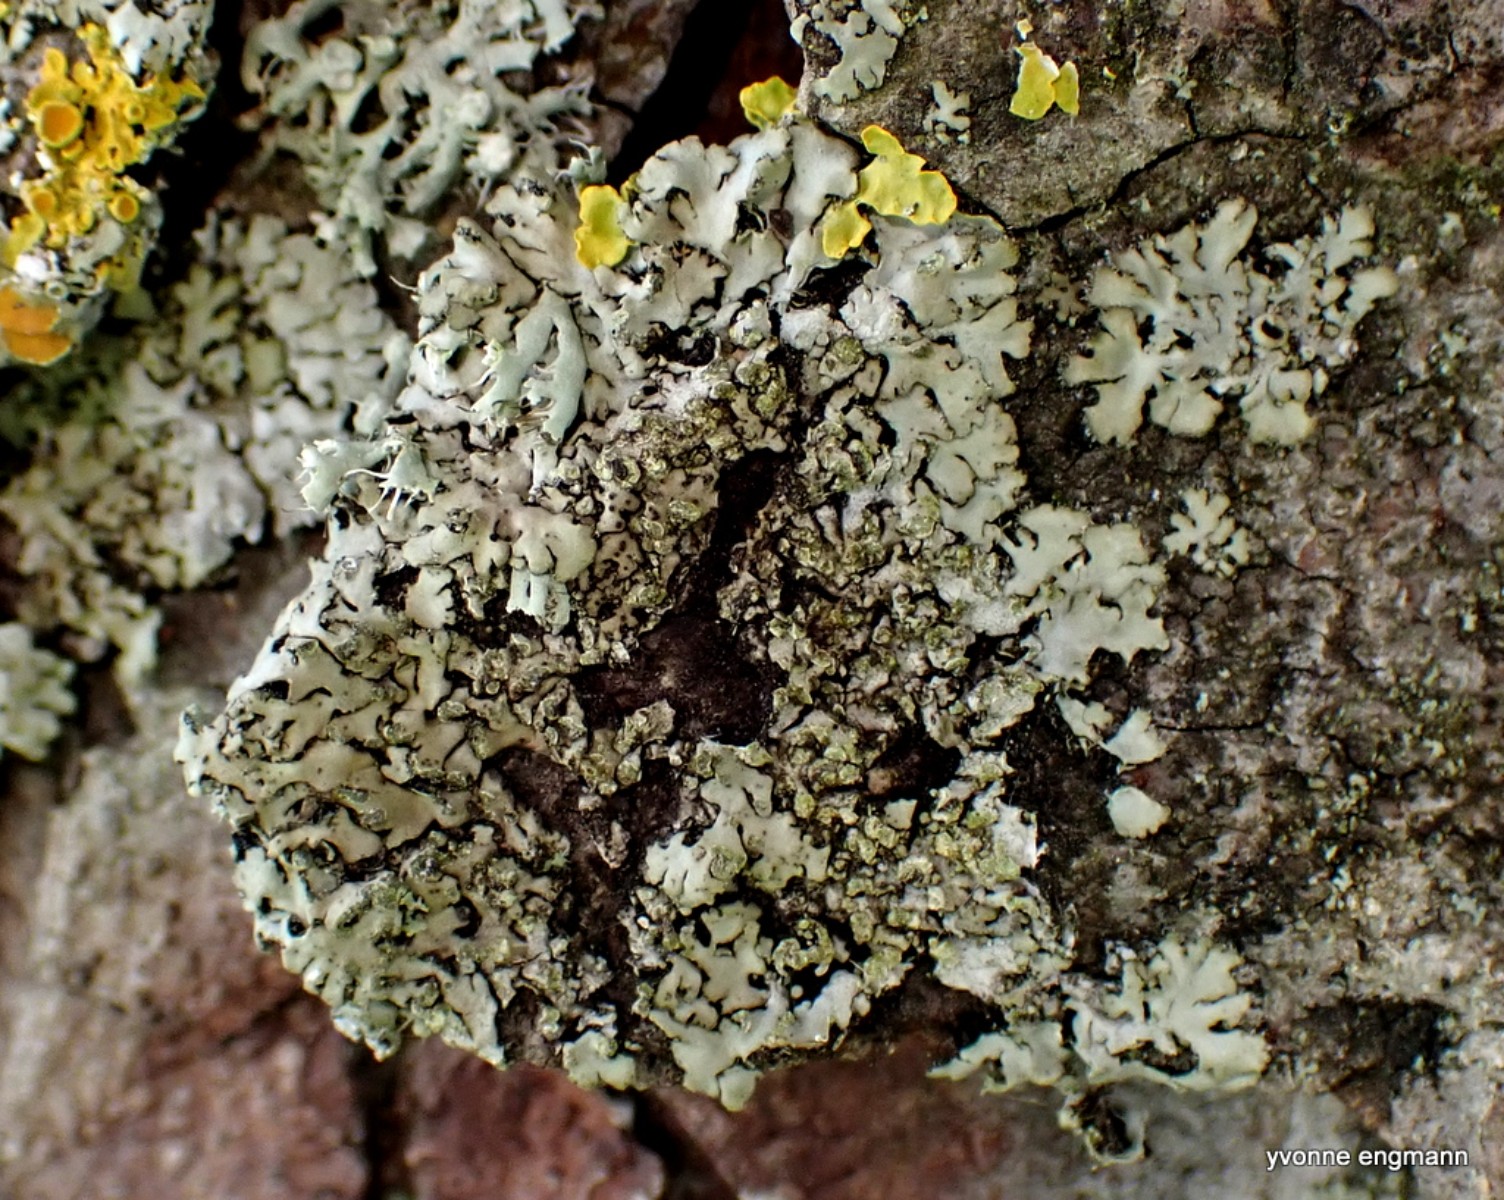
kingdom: Fungi
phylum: Ascomycota
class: Lecanoromycetes
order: Caliciales
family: Physciaceae
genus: Phaeophyscia
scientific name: Phaeophyscia orbicularis
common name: grågrøn rosetlav
